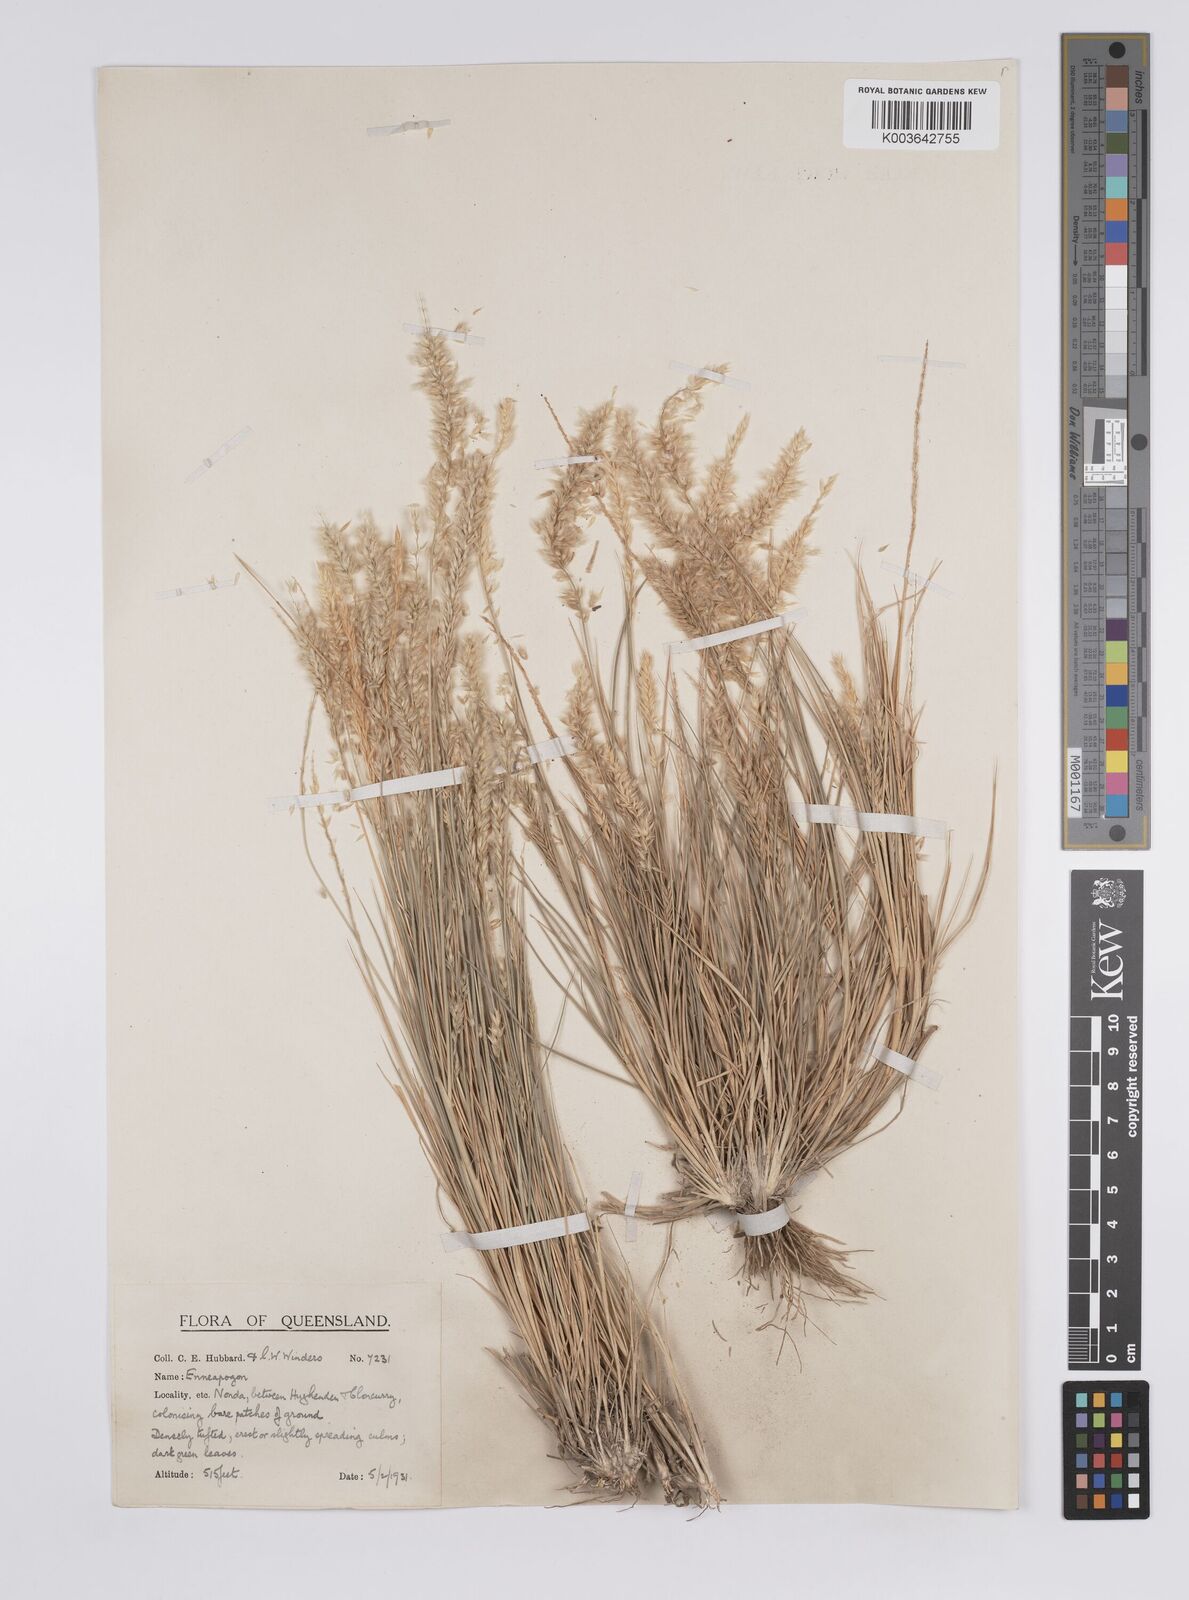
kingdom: Plantae
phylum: Tracheophyta
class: Liliopsida
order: Poales
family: Poaceae
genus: Enneapogon
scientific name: Enneapogon polyphyllus
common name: Leafy nineawn
